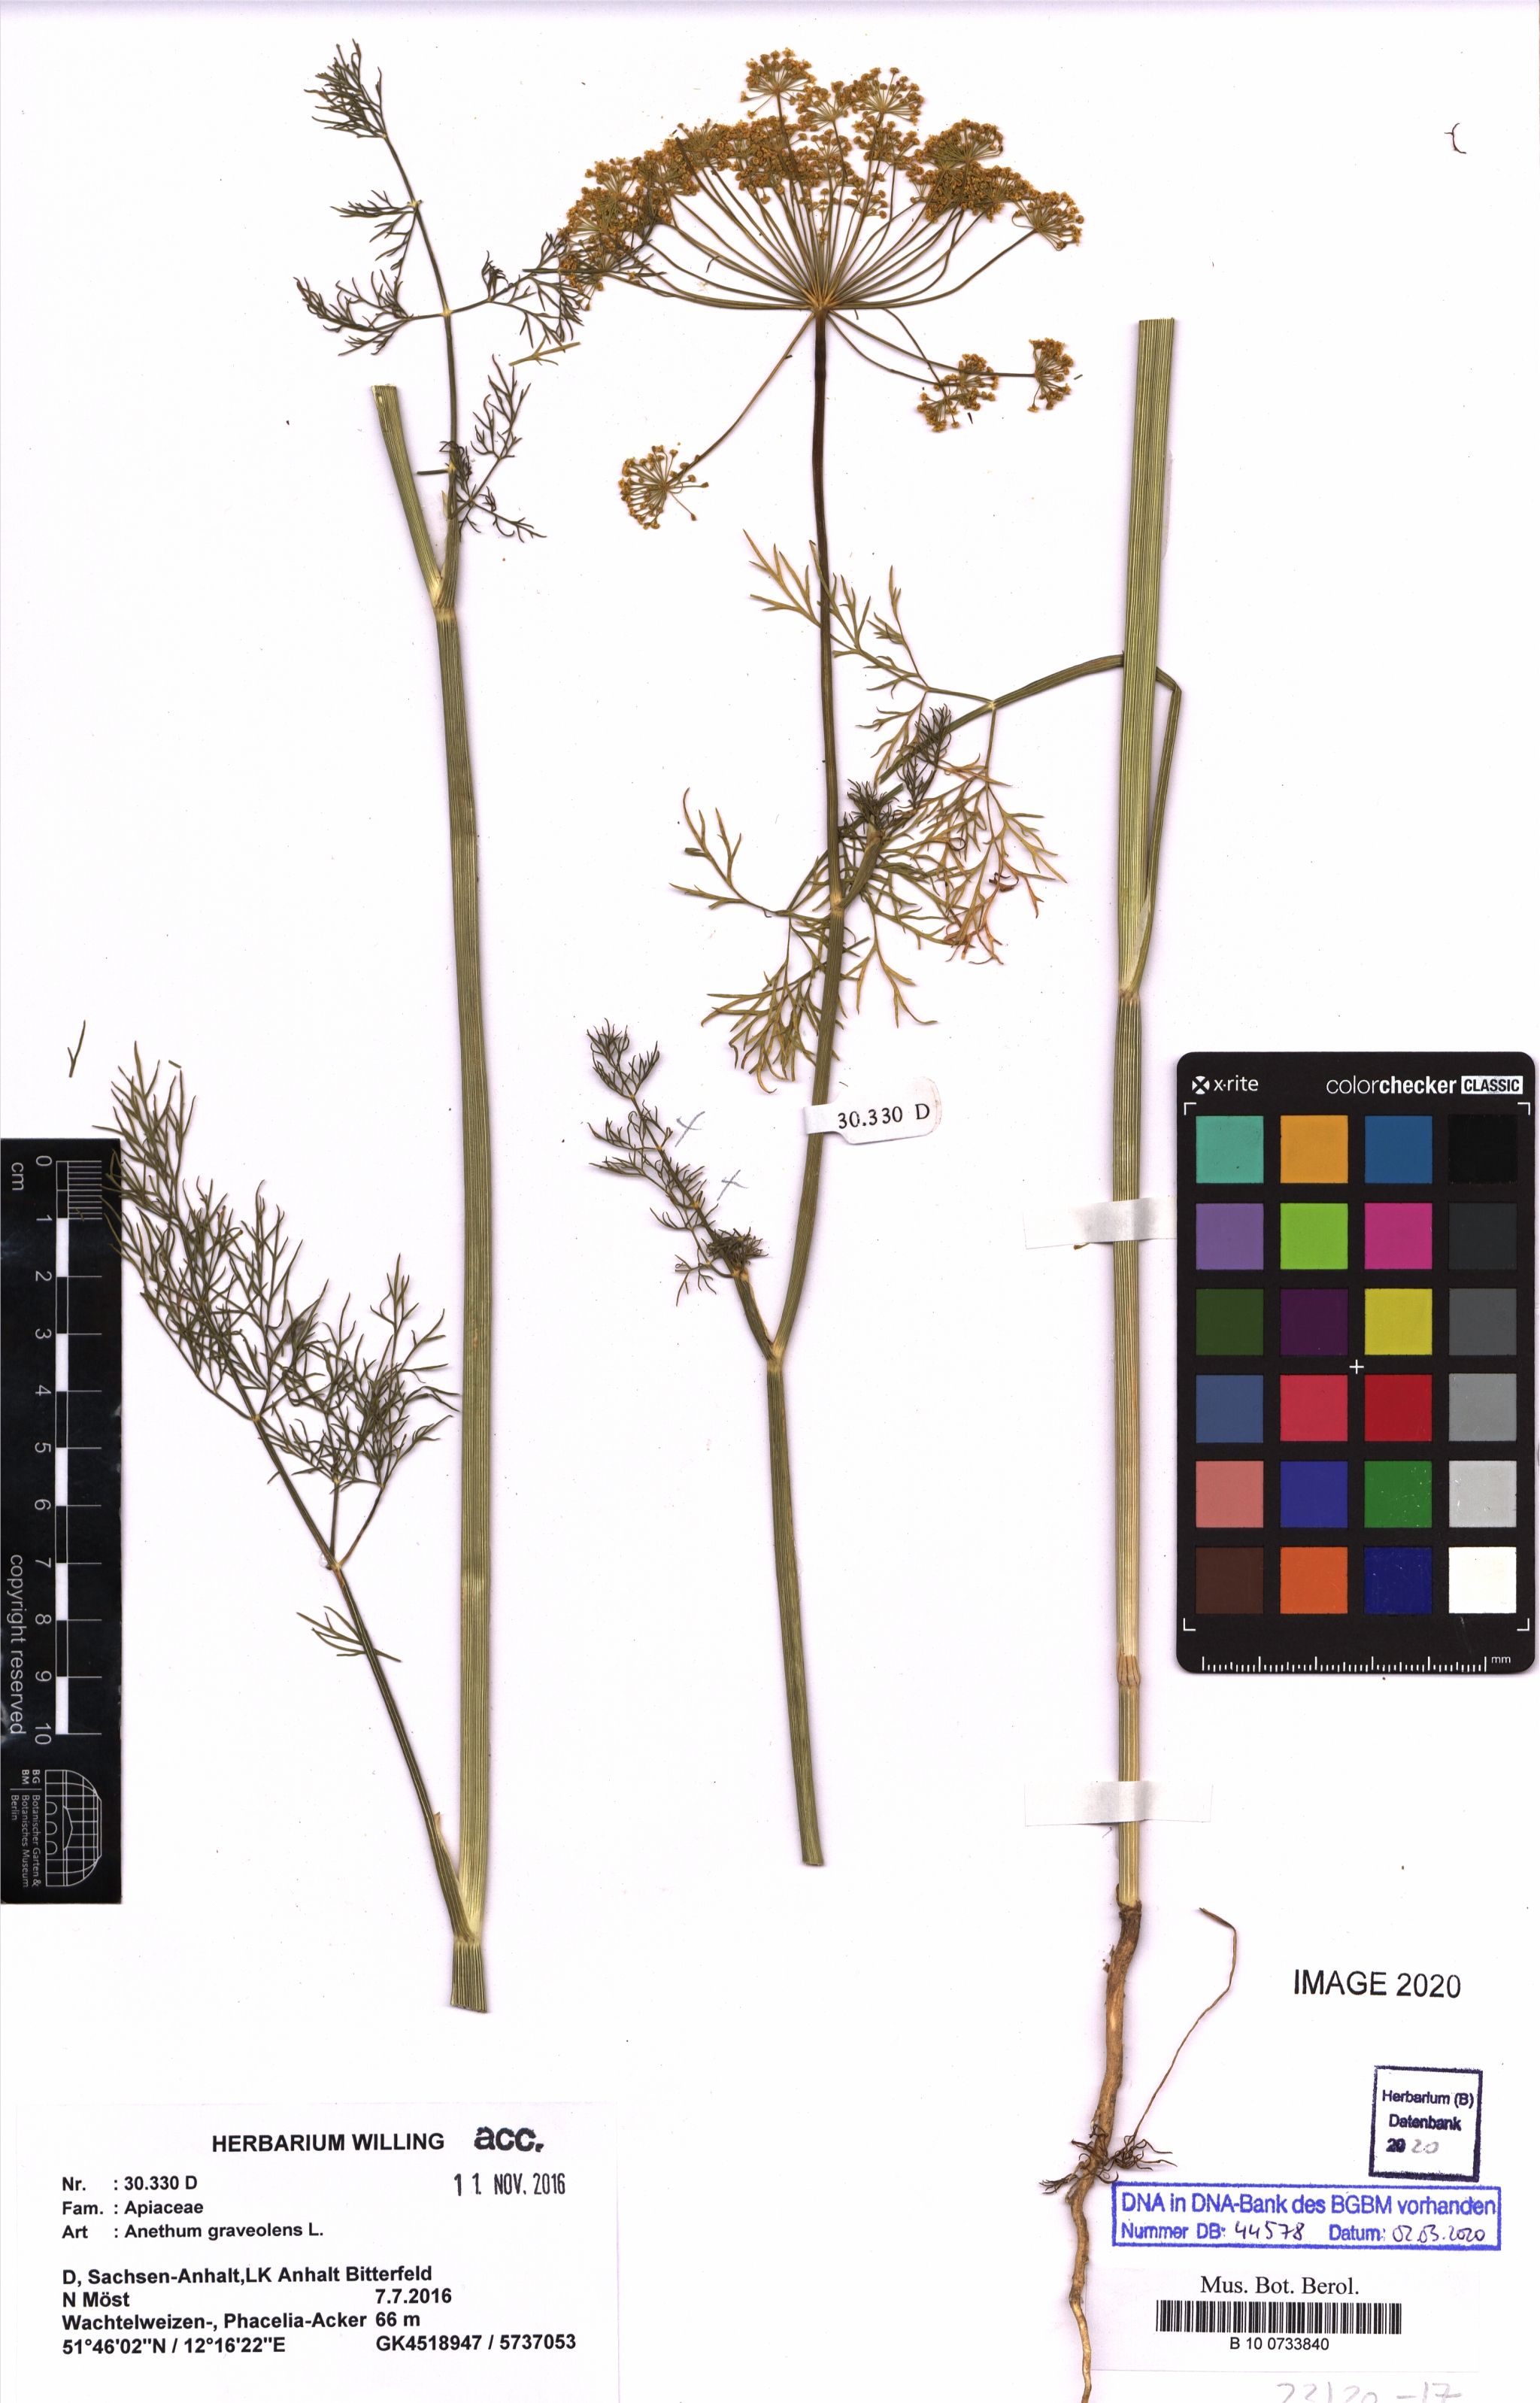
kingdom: Plantae
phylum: Tracheophyta
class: Magnoliopsida
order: Apiales
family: Apiaceae
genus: Anethum
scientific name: Anethum graveolens
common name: Dill
